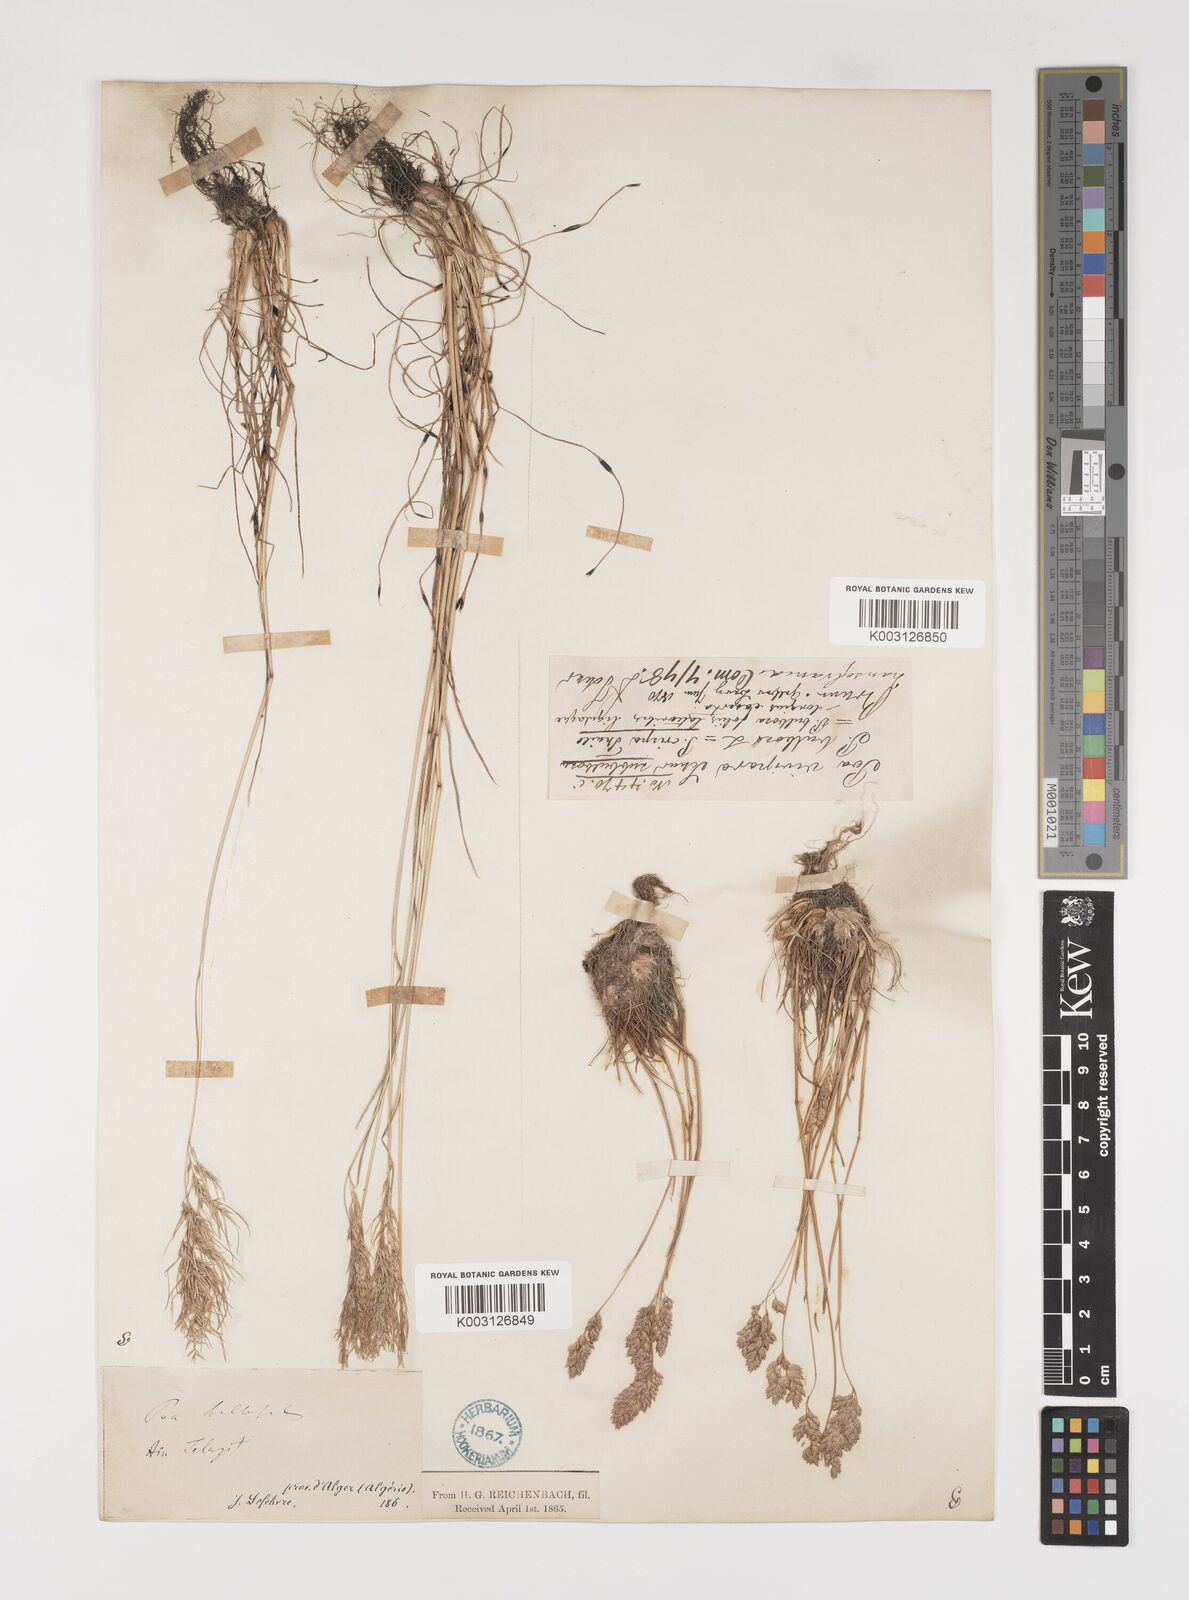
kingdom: Plantae
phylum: Tracheophyta
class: Liliopsida
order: Poales
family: Poaceae
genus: Poa
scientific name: Poa bulbosa
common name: Bulbous bluegrass
